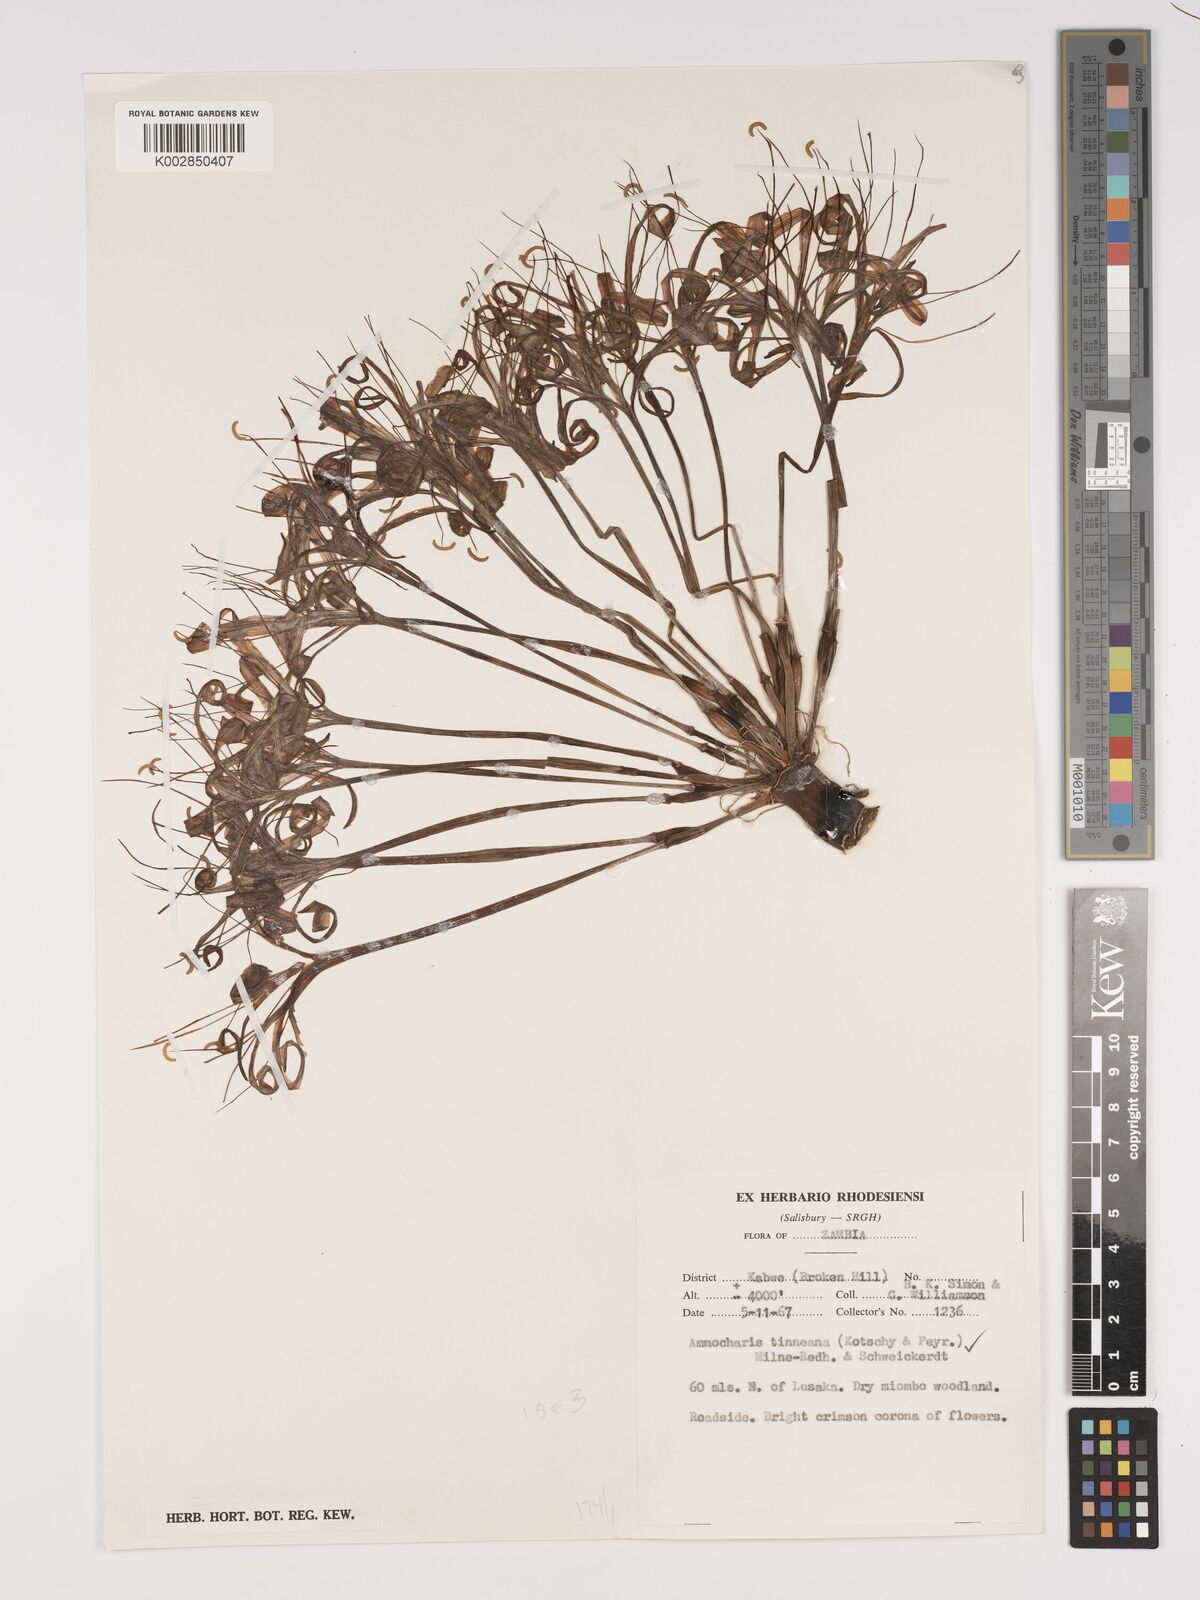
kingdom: Plantae
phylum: Tracheophyta
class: Liliopsida
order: Asparagales
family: Amaryllidaceae
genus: Ammocharis
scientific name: Ammocharis tinneana
